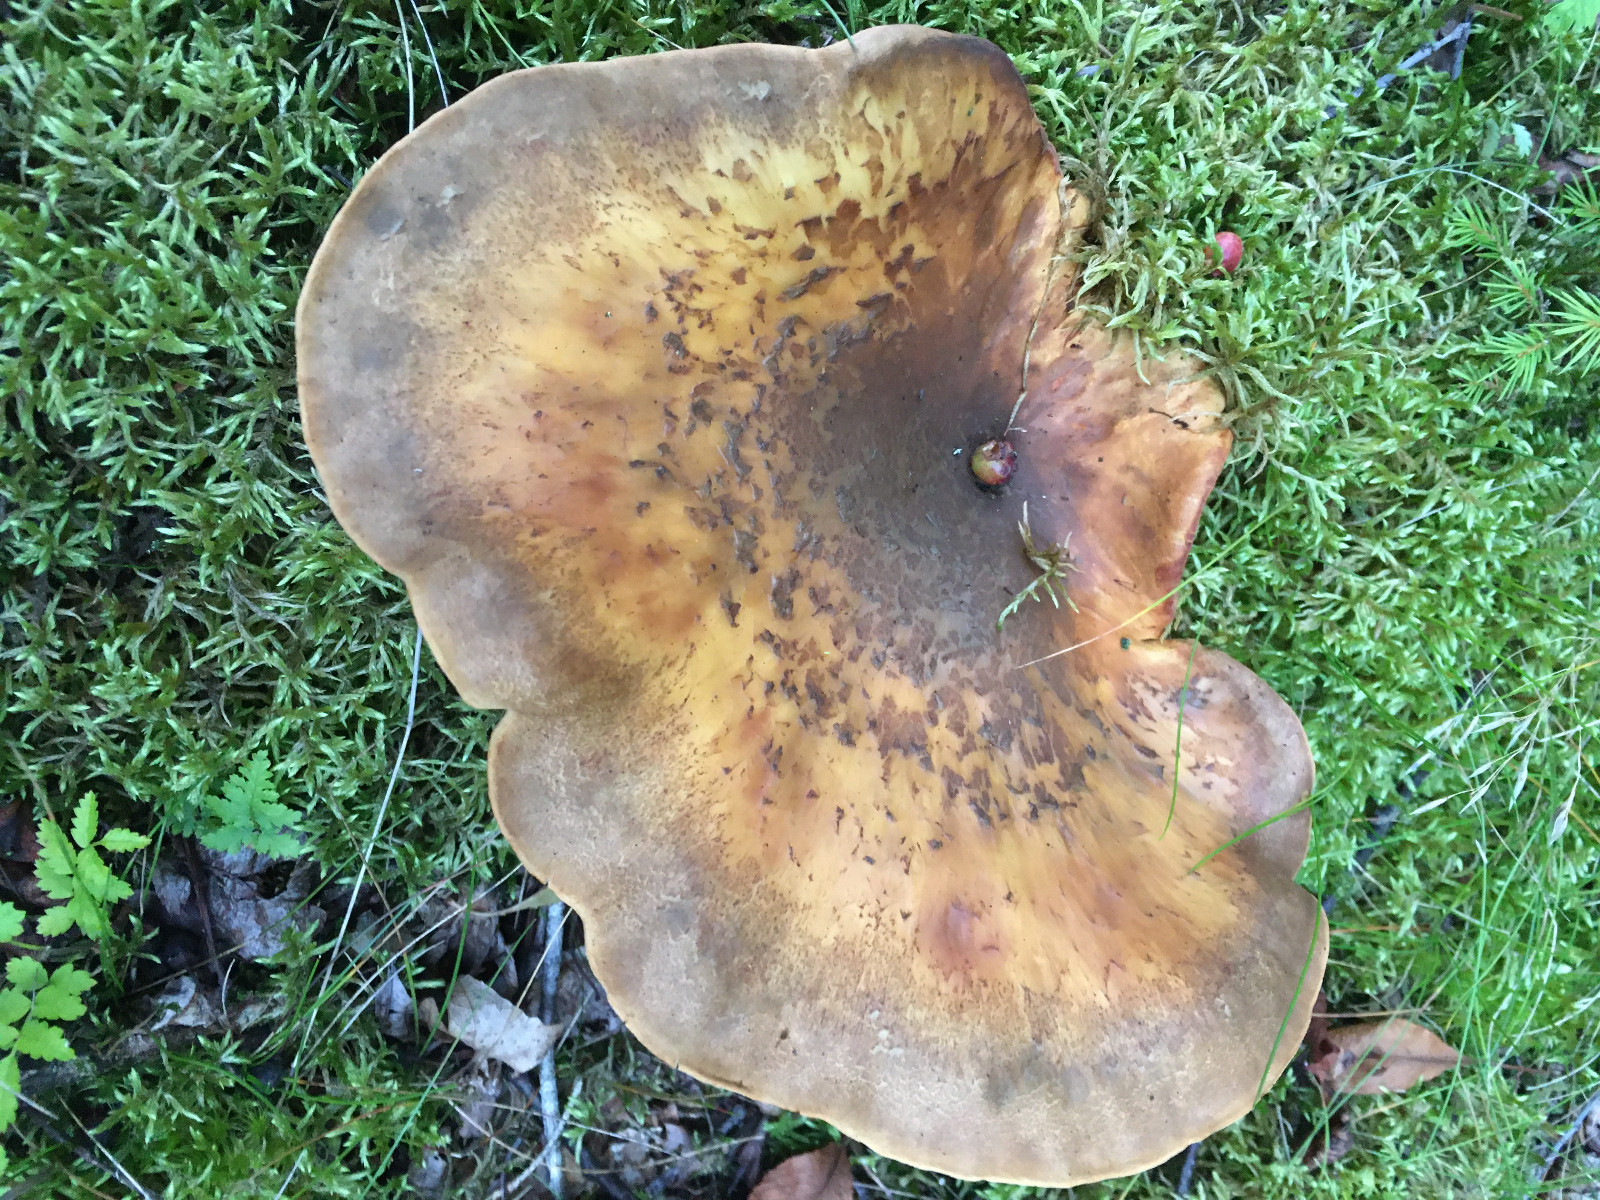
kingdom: Fungi
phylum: Basidiomycota
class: Agaricomycetes
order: Boletales
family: Tapinellaceae
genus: Tapinella
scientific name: Tapinella atrotomentosa
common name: sortfiltet viftesvamp
